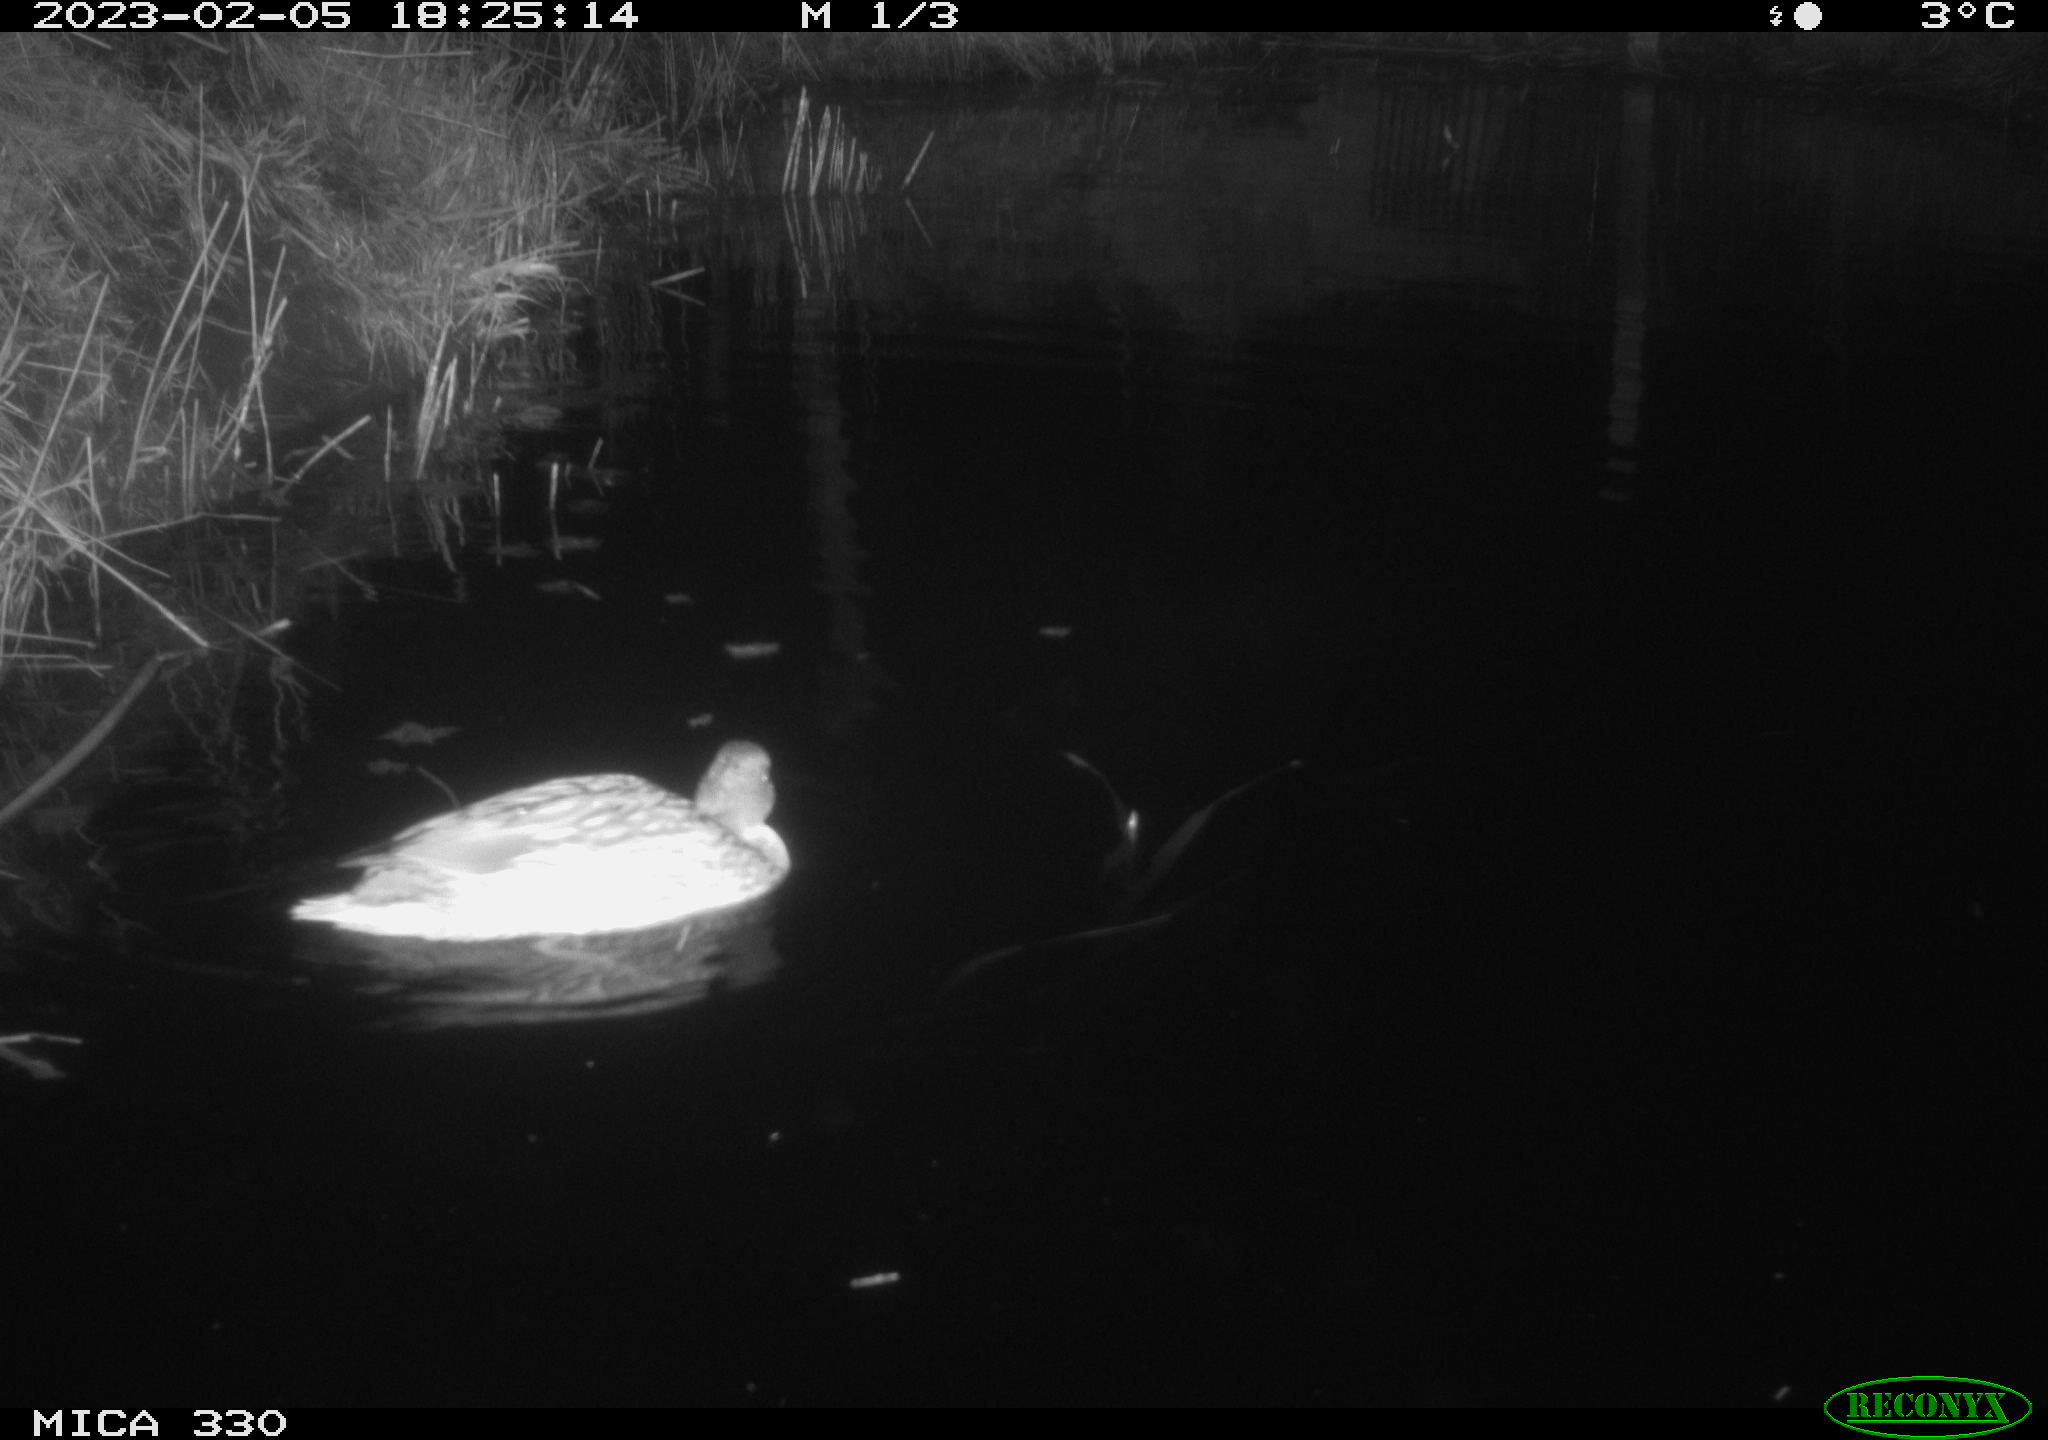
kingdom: Animalia
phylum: Chordata
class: Aves
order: Pelecaniformes
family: Ardeidae
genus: Ardea
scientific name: Ardea cinerea
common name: Grey heron
